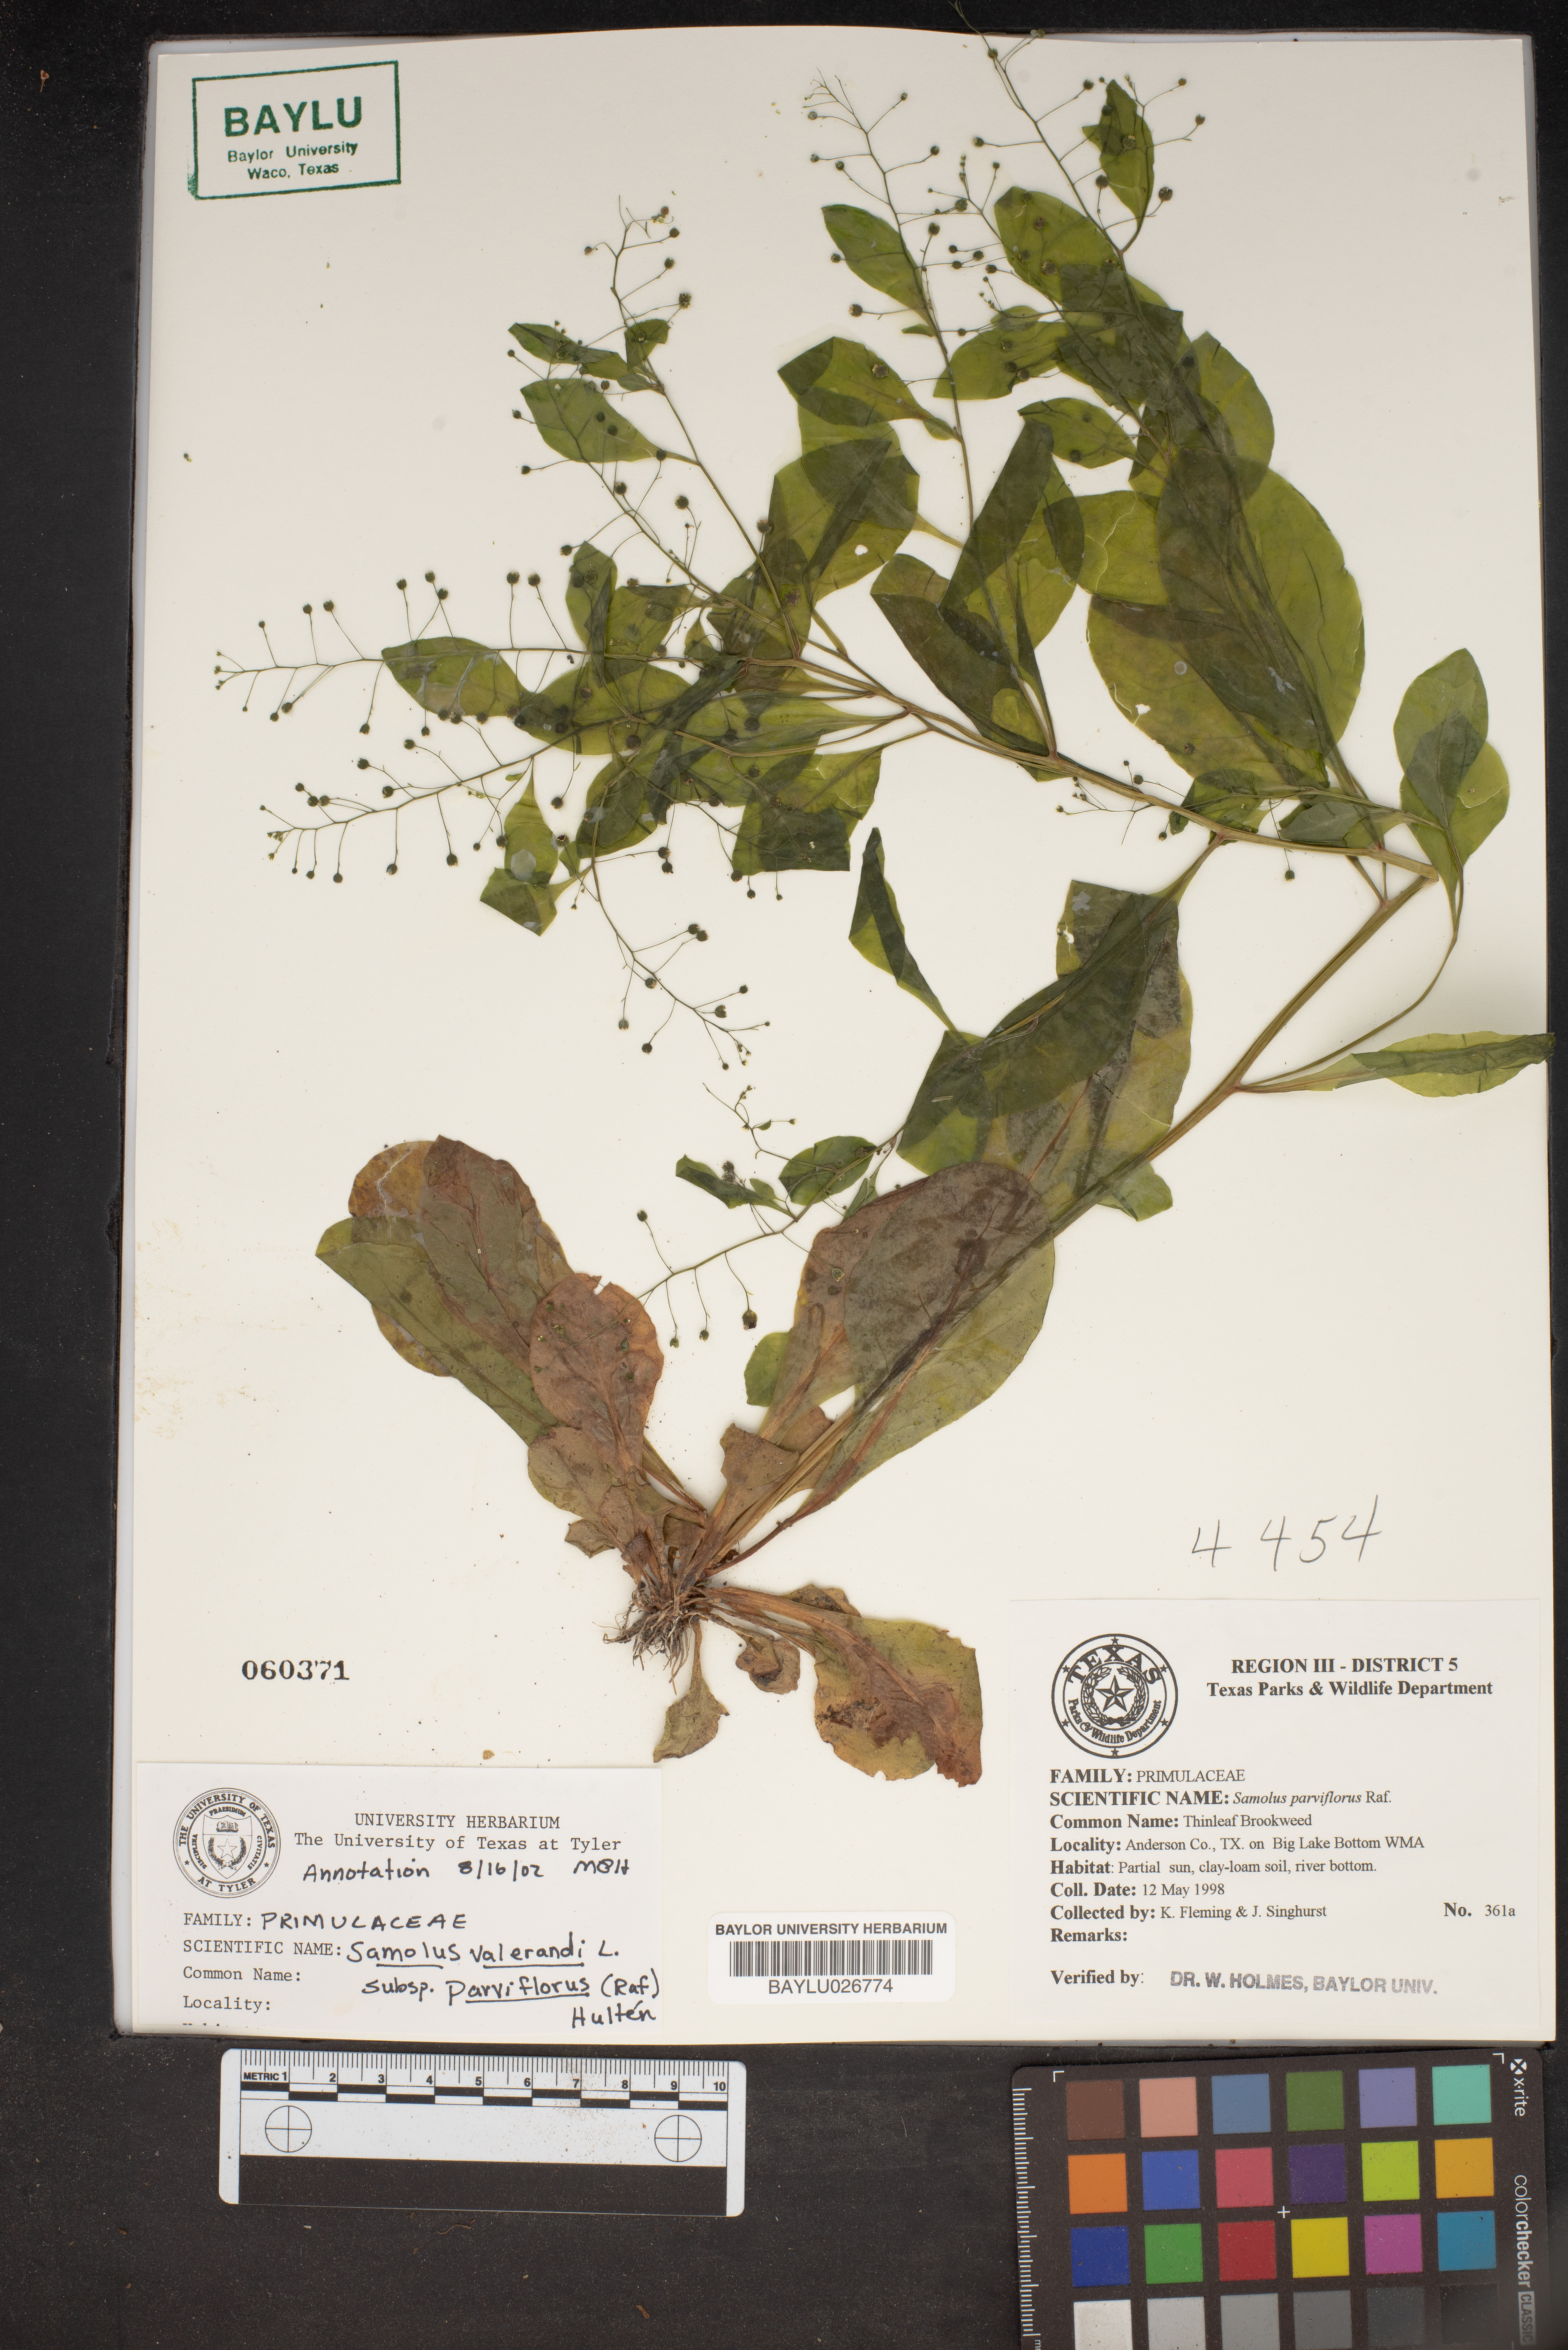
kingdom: Plantae
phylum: Tracheophyta
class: Magnoliopsida
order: Ericales
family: Primulaceae
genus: Samolus
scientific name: Samolus parviflorus
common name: False water pimpernel
